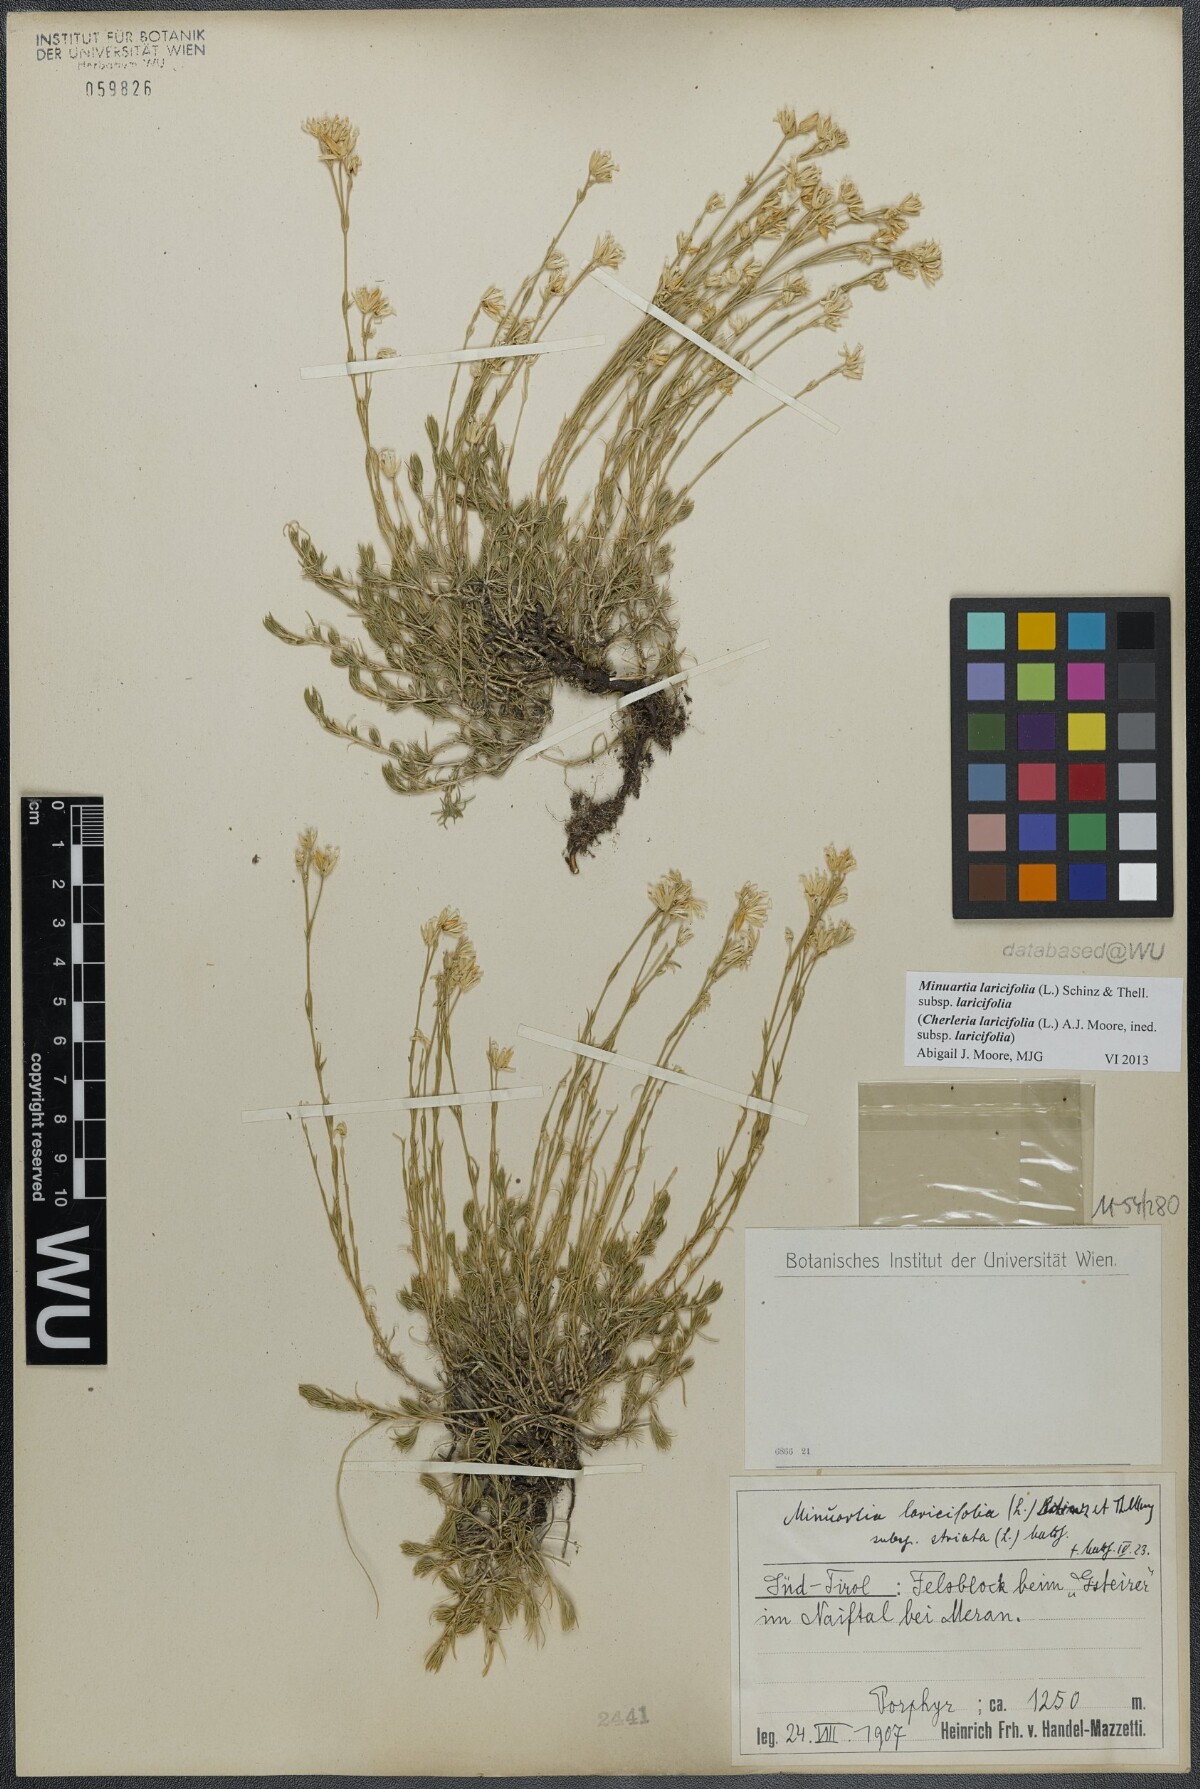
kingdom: Plantae
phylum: Tracheophyta
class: Magnoliopsida
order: Caryophyllales
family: Caryophyllaceae
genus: Cherleria
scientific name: Cherleria laricifolia
